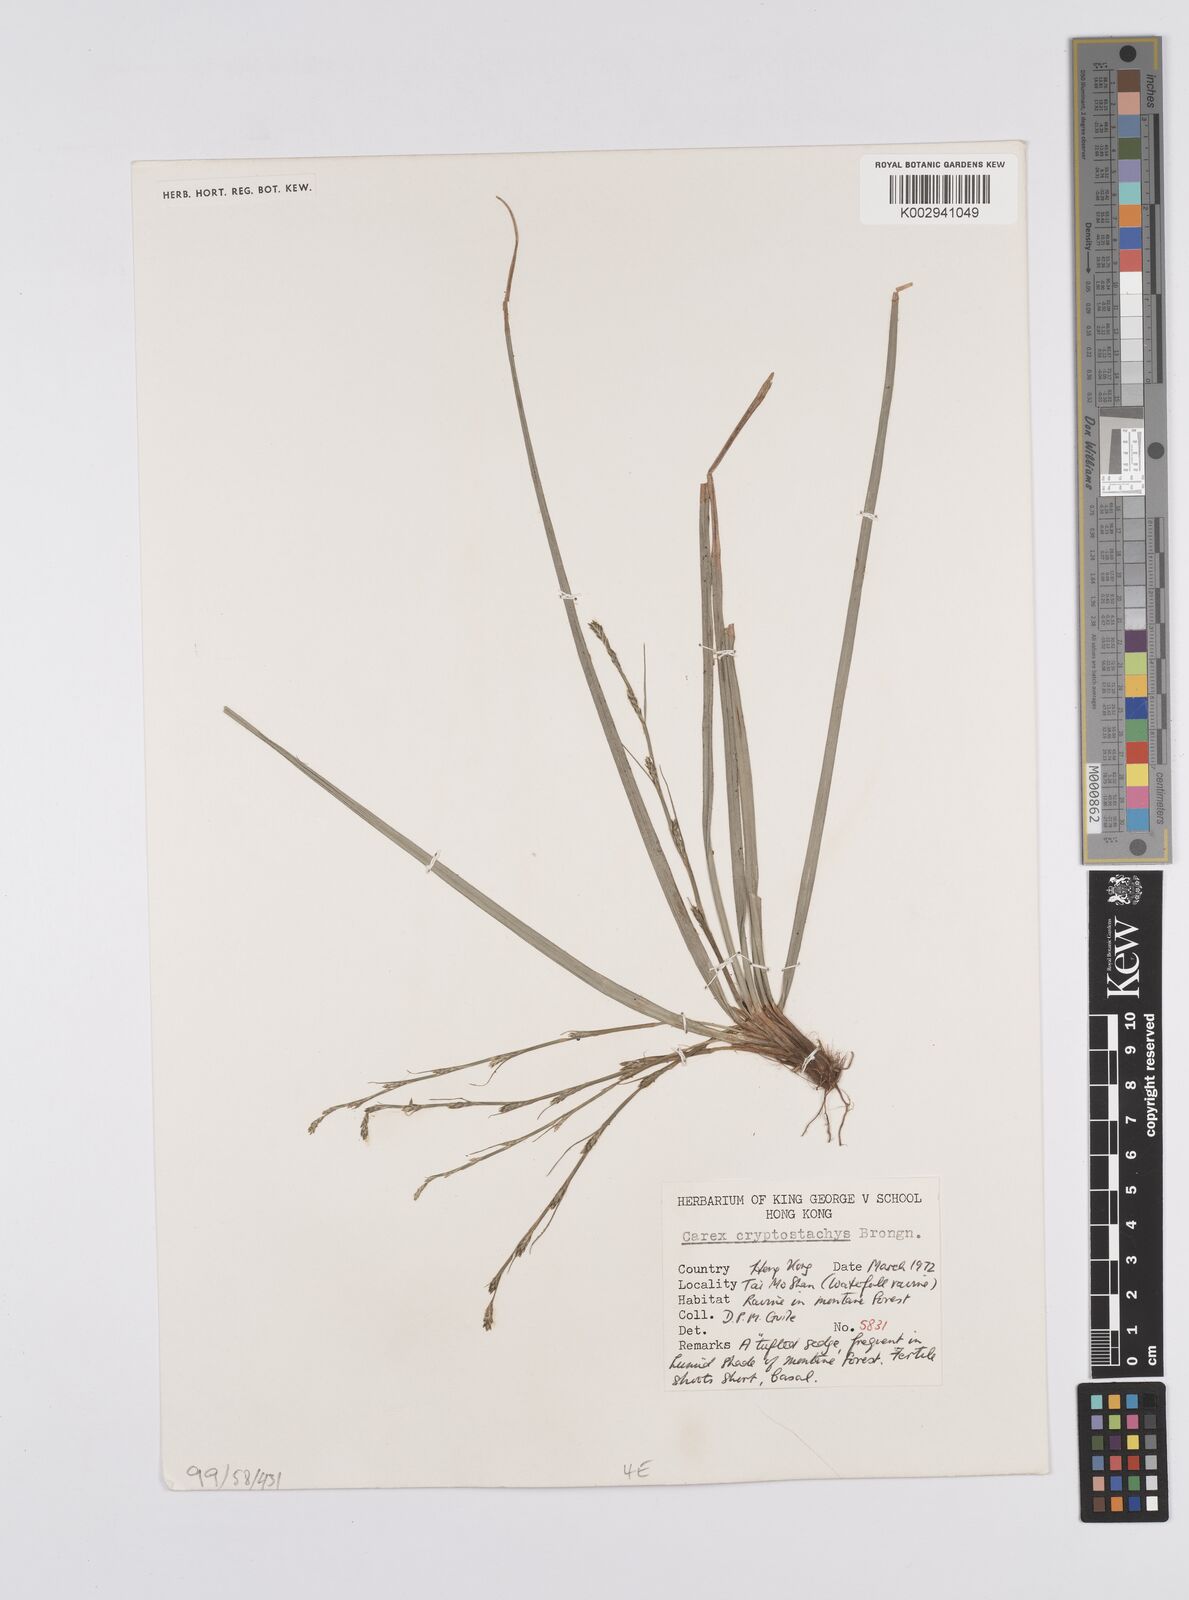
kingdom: Plantae
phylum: Tracheophyta
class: Liliopsida
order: Poales
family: Cyperaceae
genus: Carex
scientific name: Carex cryptostachys
